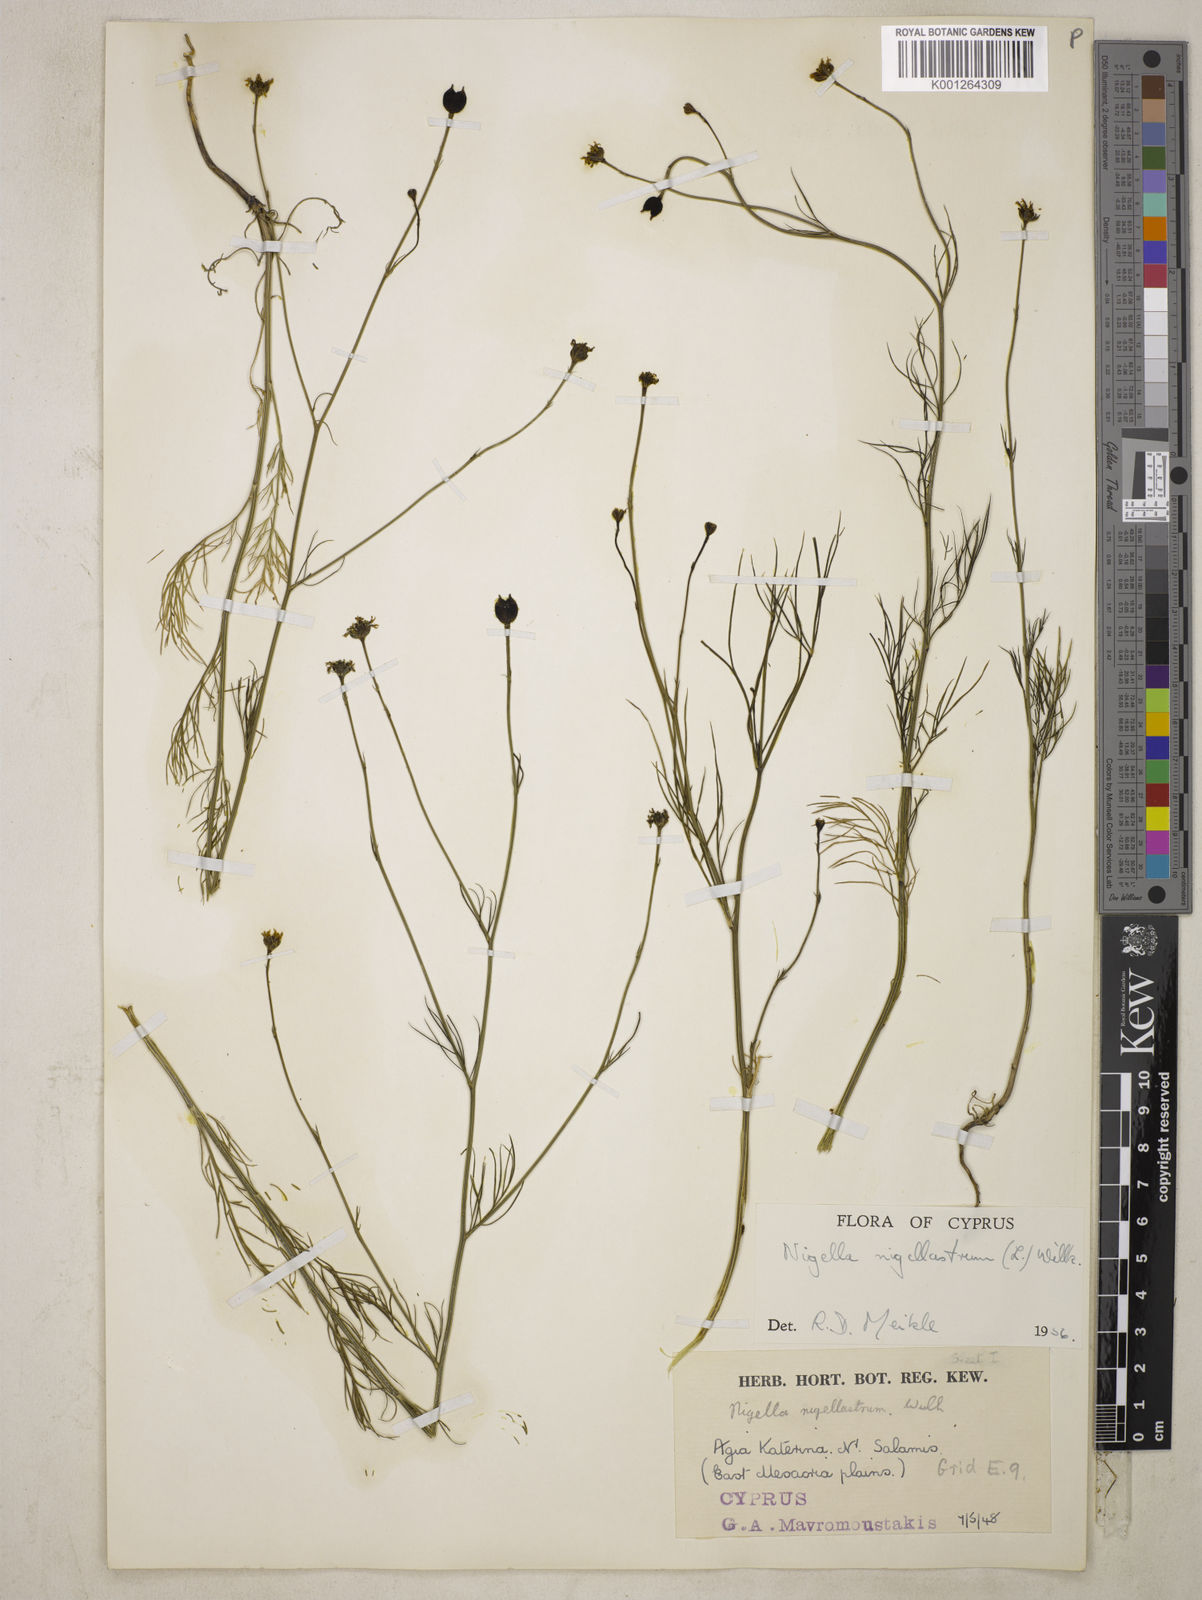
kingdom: Plantae
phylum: Tracheophyta
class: Magnoliopsida
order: Ranunculales
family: Ranunculaceae
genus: Garidella
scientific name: Garidella nigellastrum
